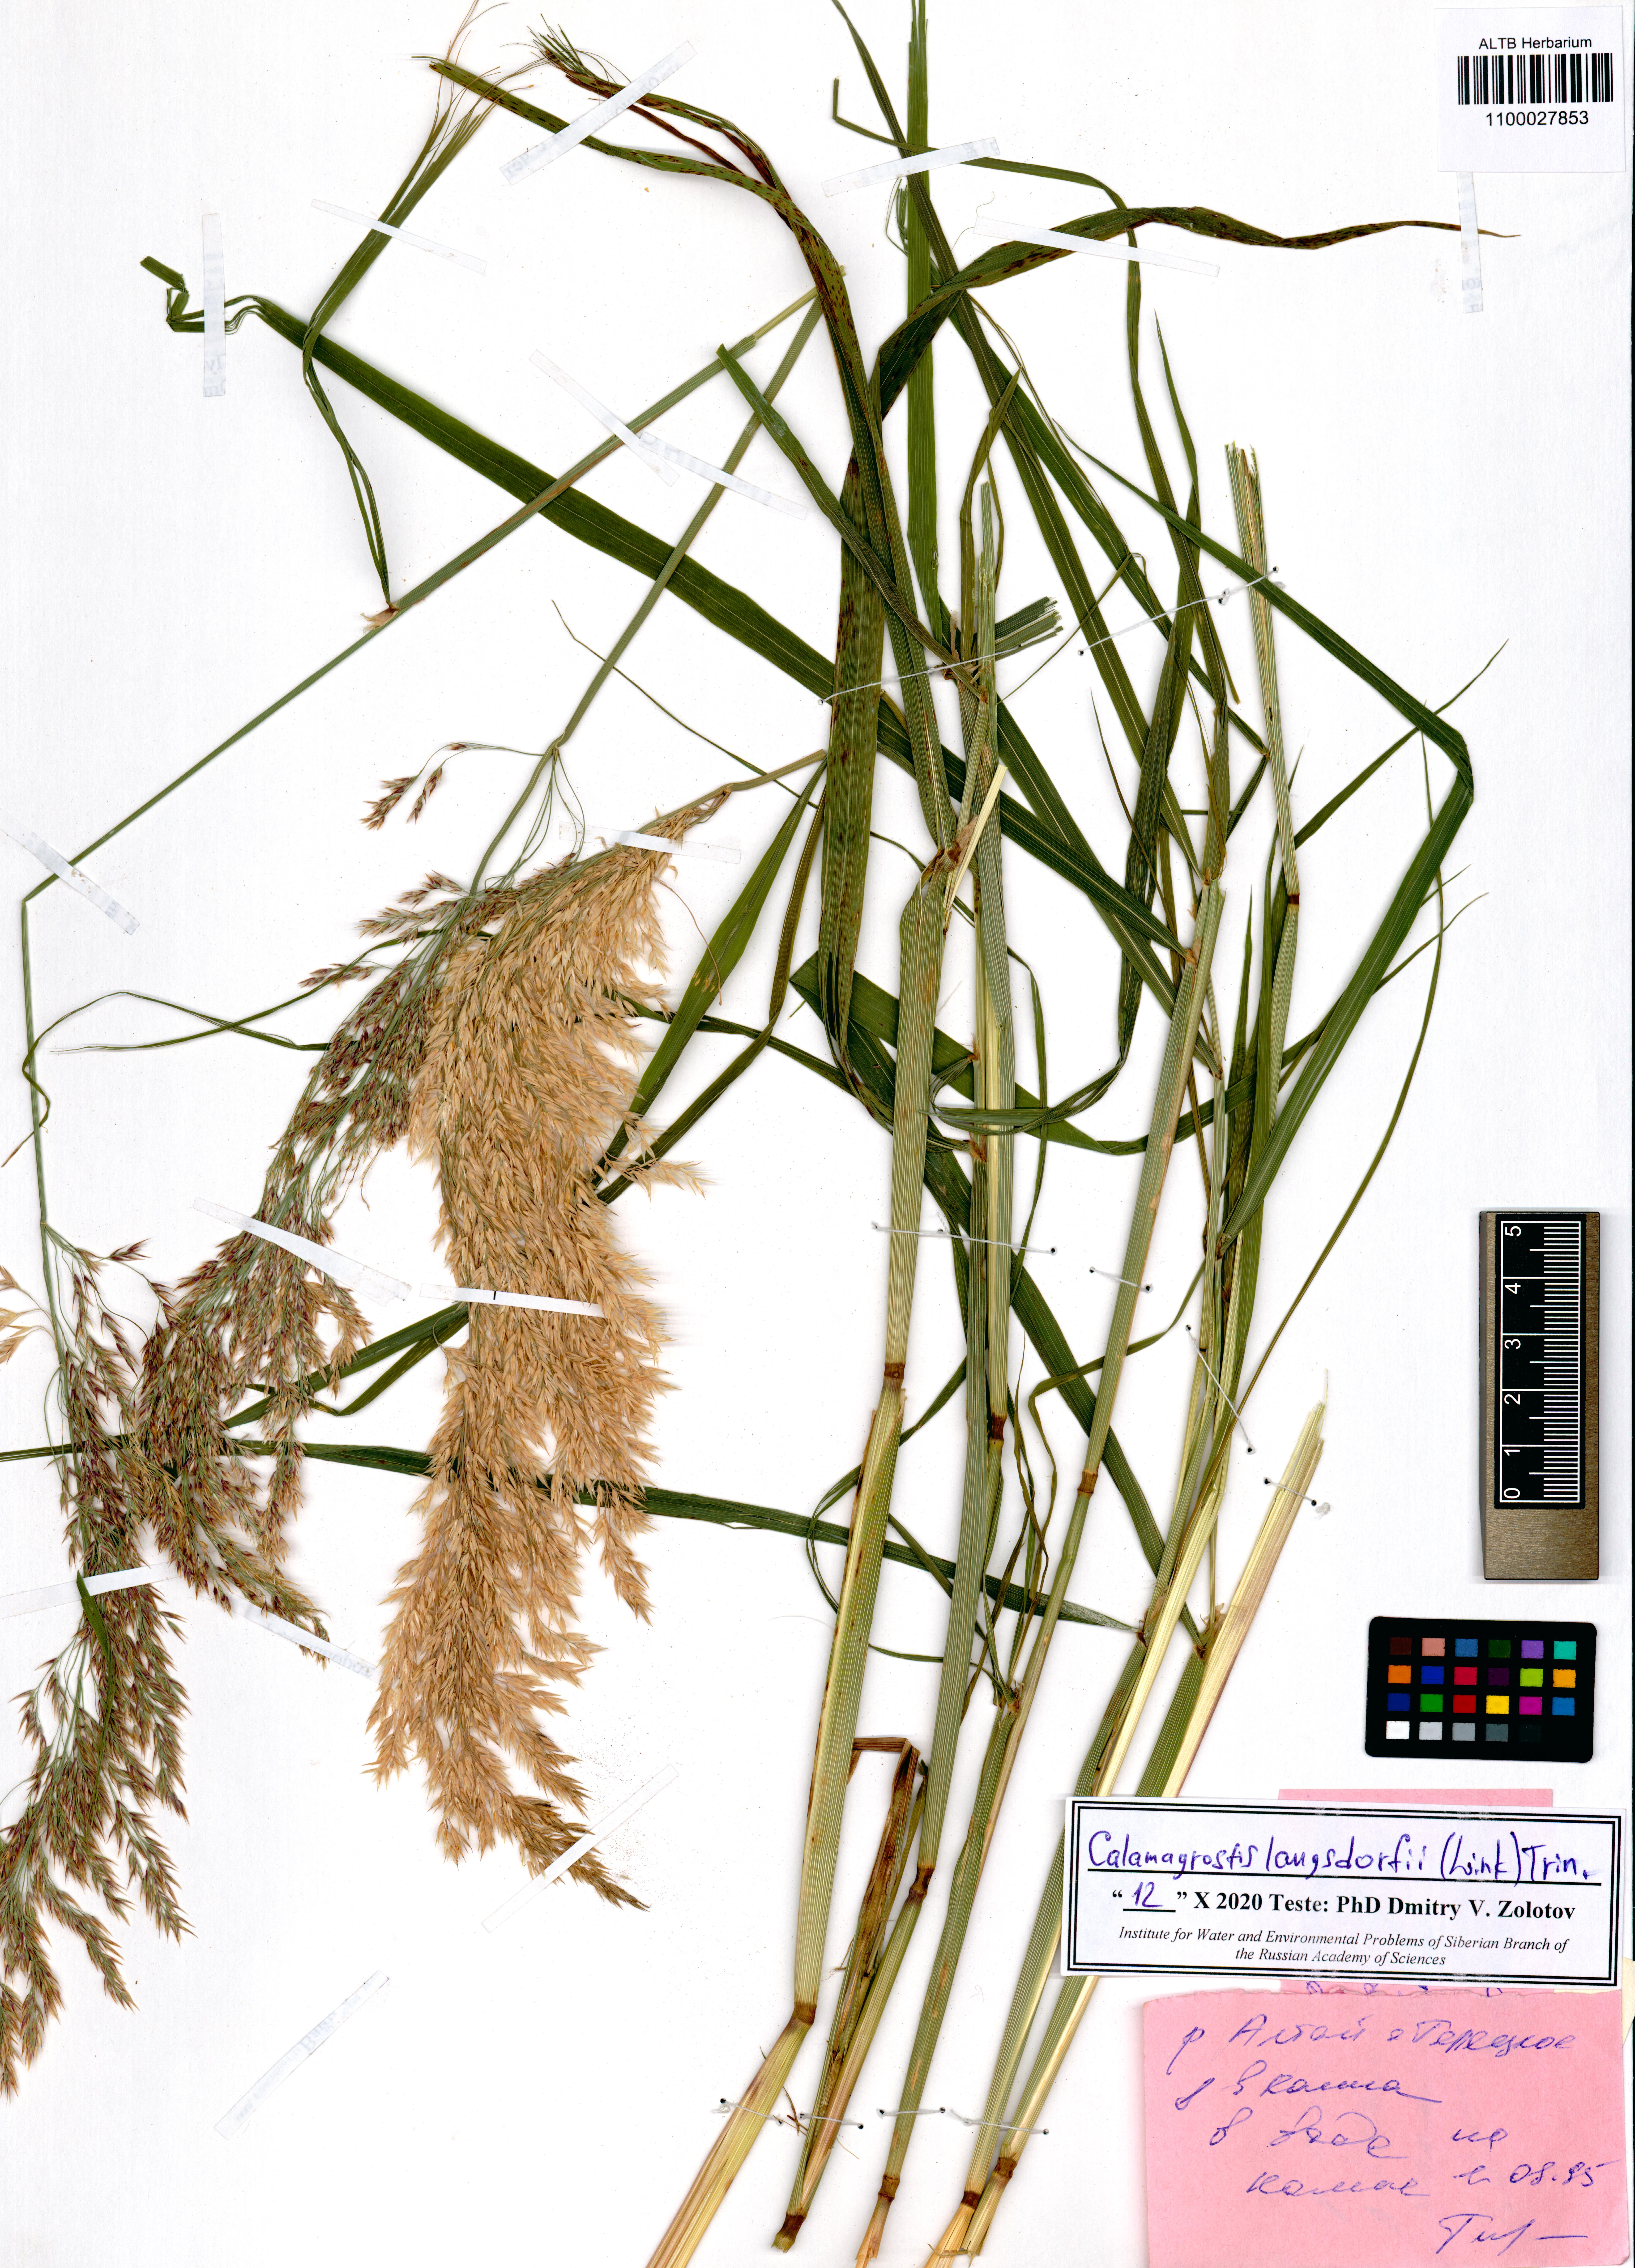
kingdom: Plantae
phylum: Tracheophyta
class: Liliopsida
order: Poales
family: Poaceae
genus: Calamagrostis
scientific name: Calamagrostis purpurea
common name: Scandinavian small-reed
